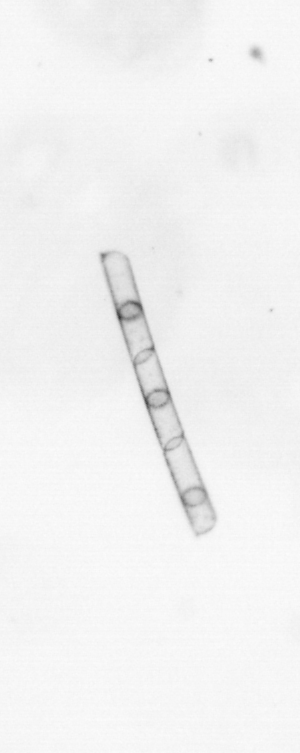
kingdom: Chromista
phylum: Ochrophyta
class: Bacillariophyceae
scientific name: Bacillariophyceae
